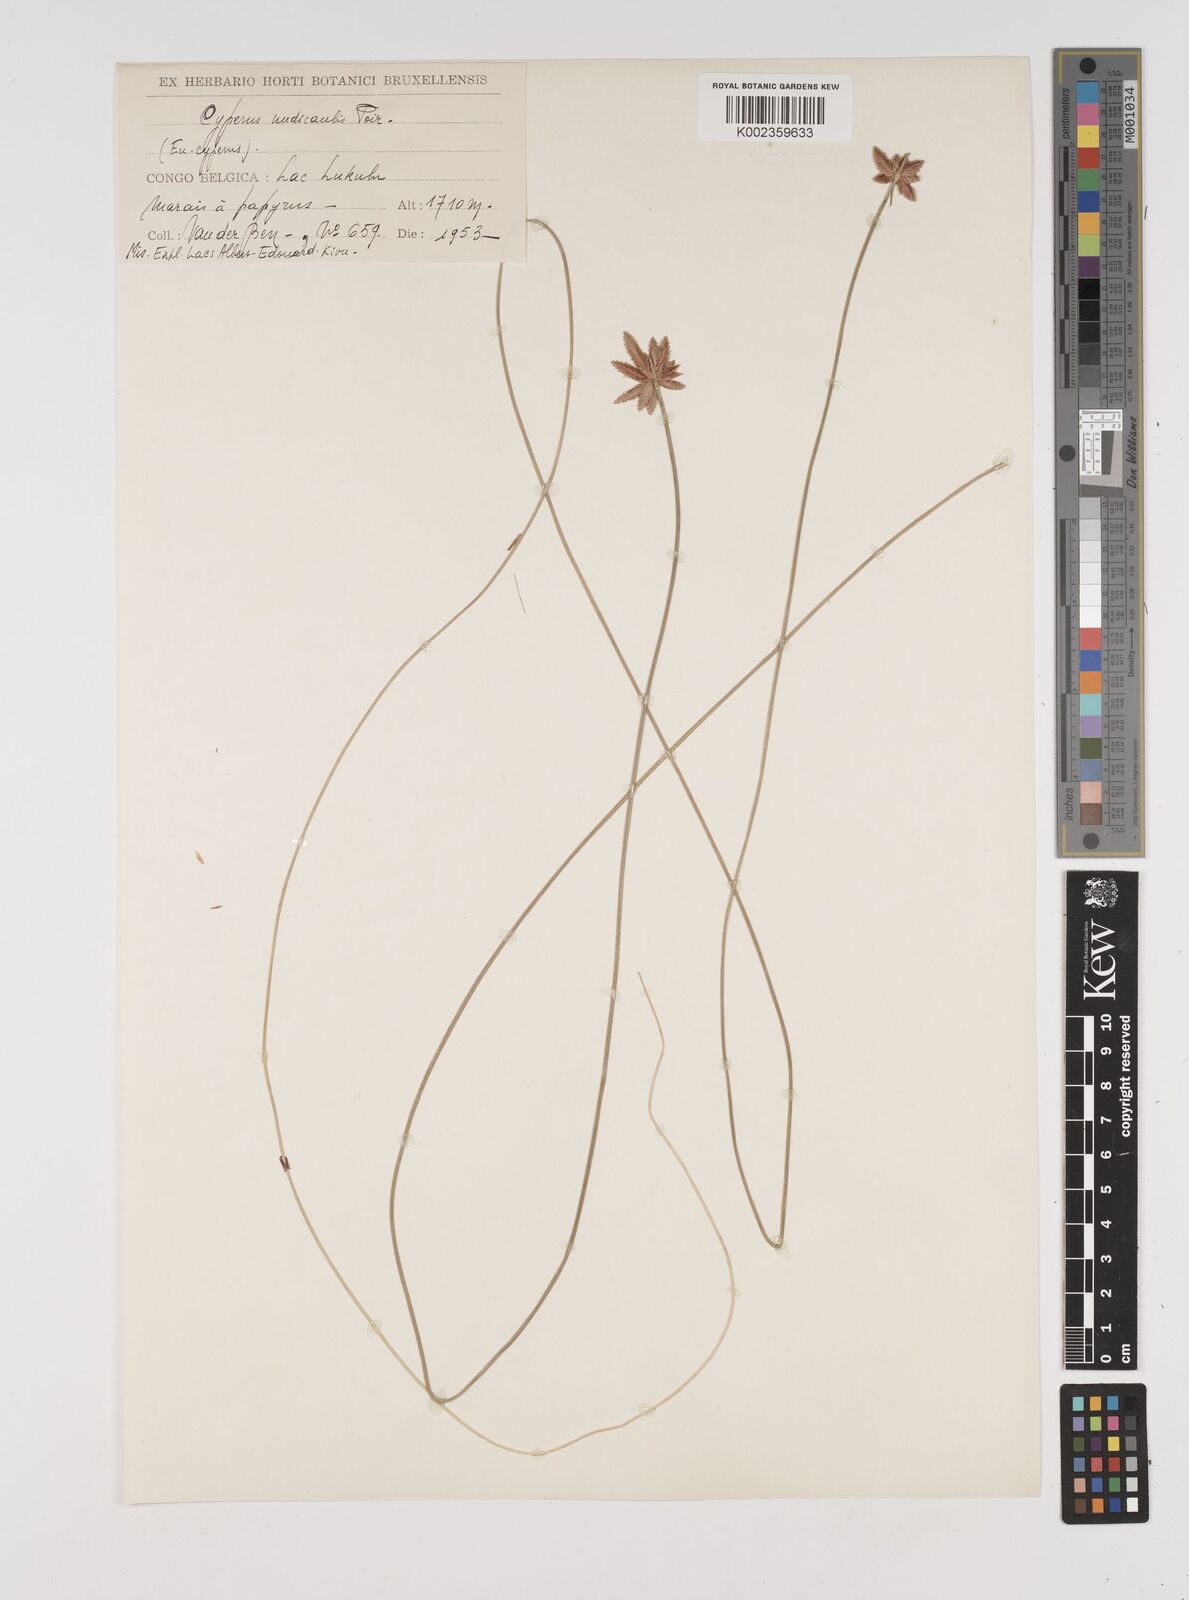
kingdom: Plantae
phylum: Tracheophyta
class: Liliopsida
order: Poales
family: Cyperaceae
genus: Cyperus
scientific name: Cyperus pectinatus
